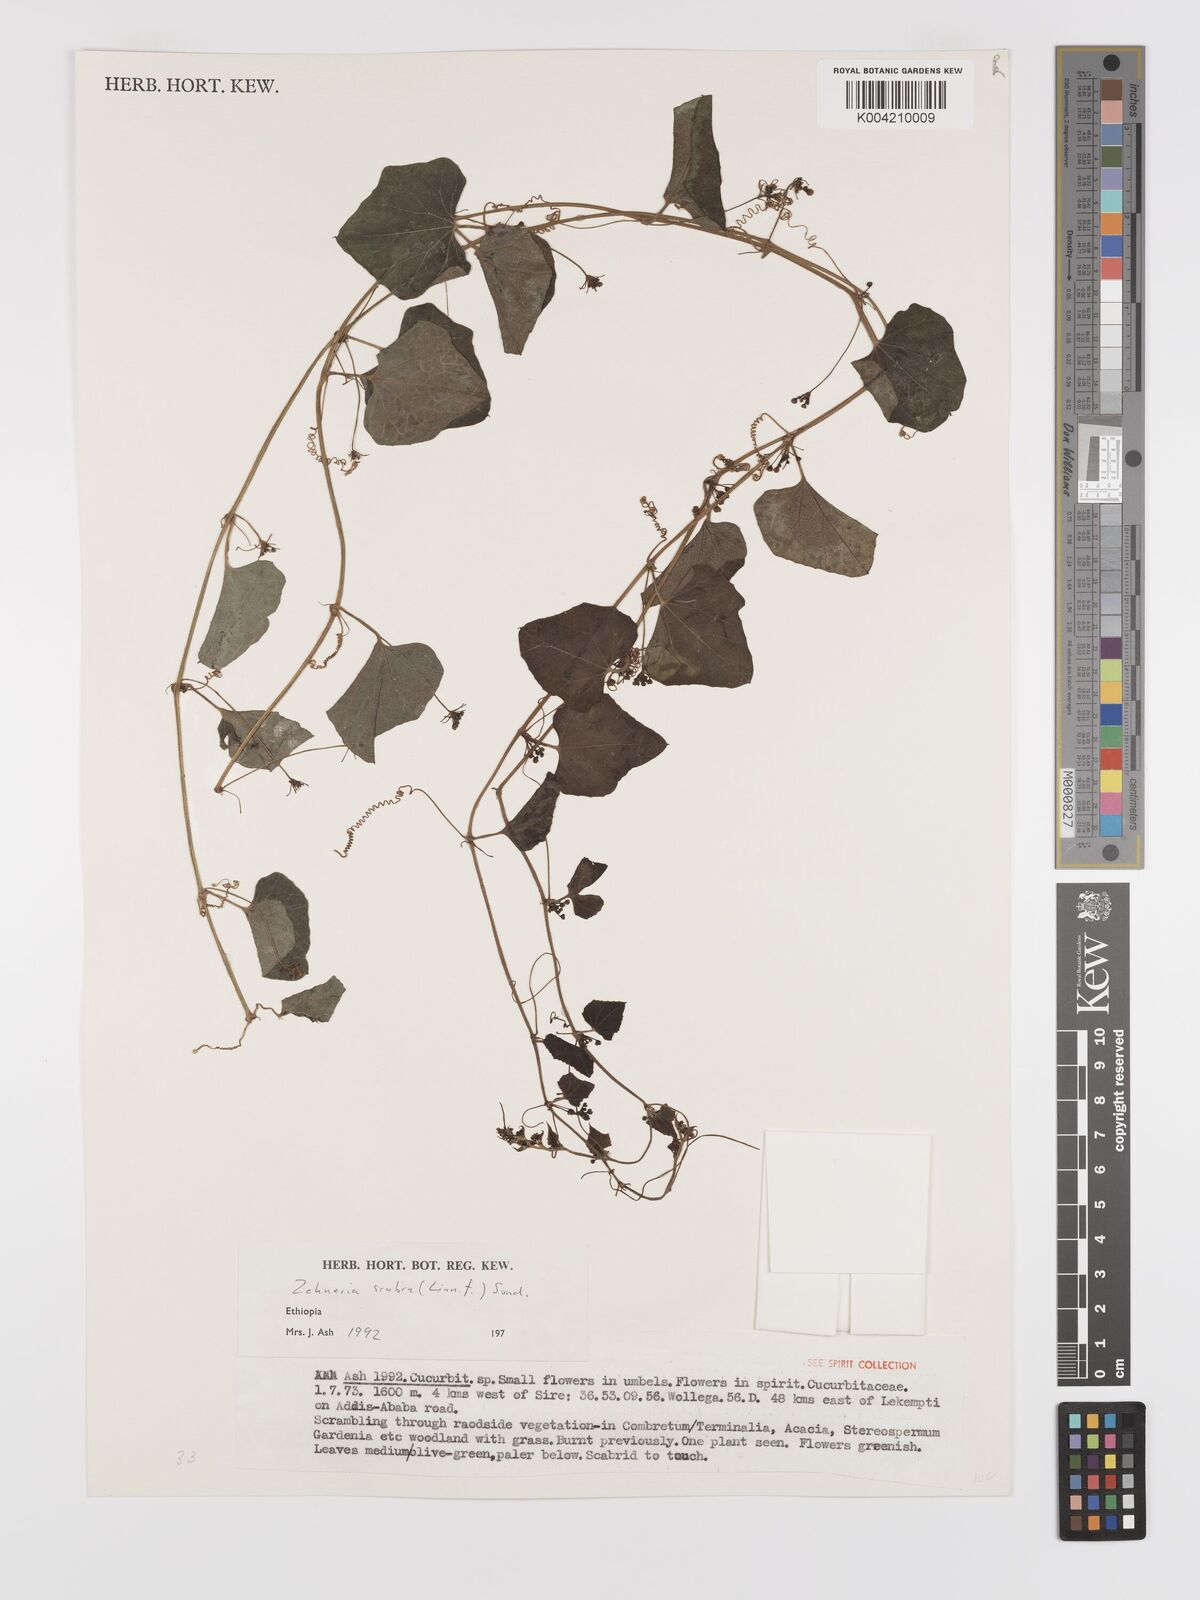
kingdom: Plantae
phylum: Tracheophyta
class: Magnoliopsida
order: Cucurbitales
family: Cucurbitaceae
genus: Zehneria
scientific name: Zehneria scabra
